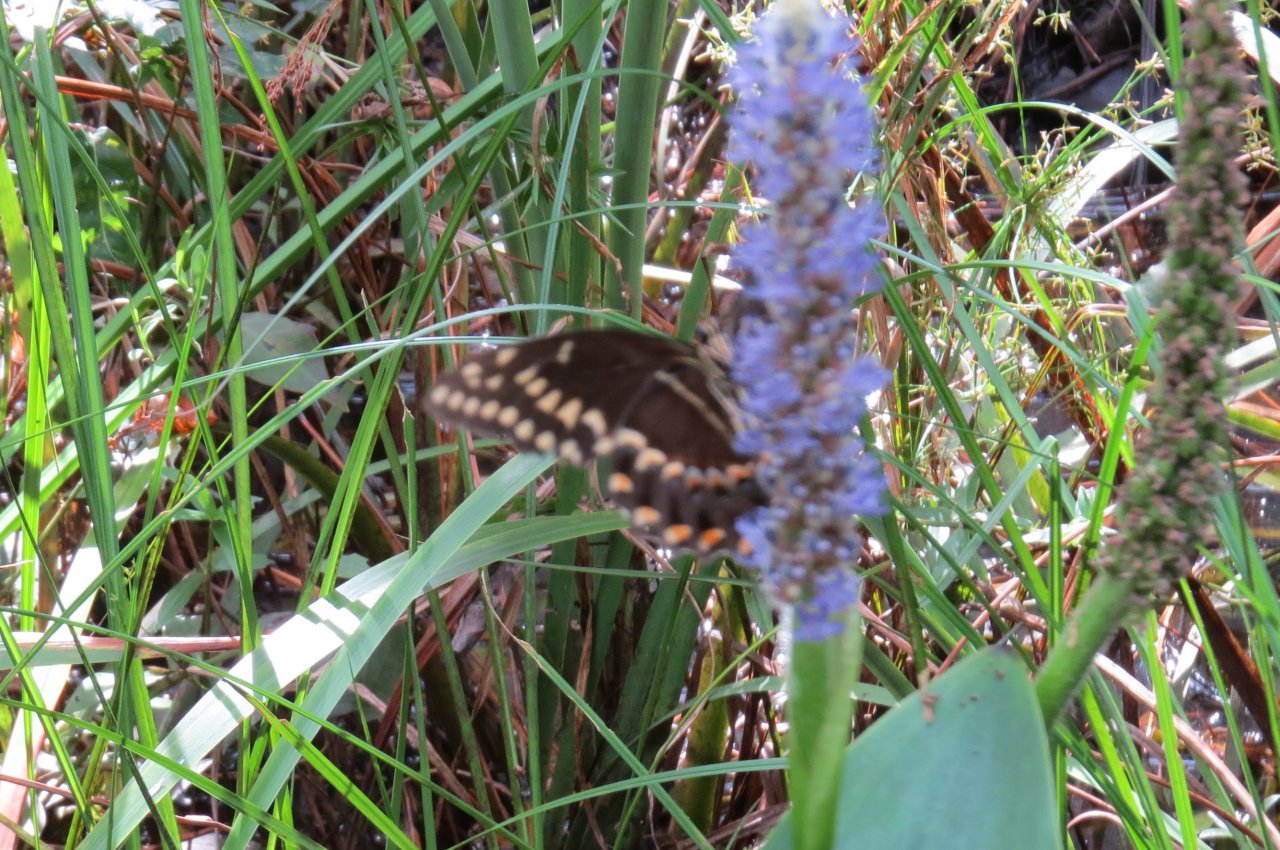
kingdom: Animalia
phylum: Arthropoda
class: Insecta
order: Lepidoptera
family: Papilionidae
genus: Pterourus
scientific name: Pterourus palamedes
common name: Palamedes Swallowtail
